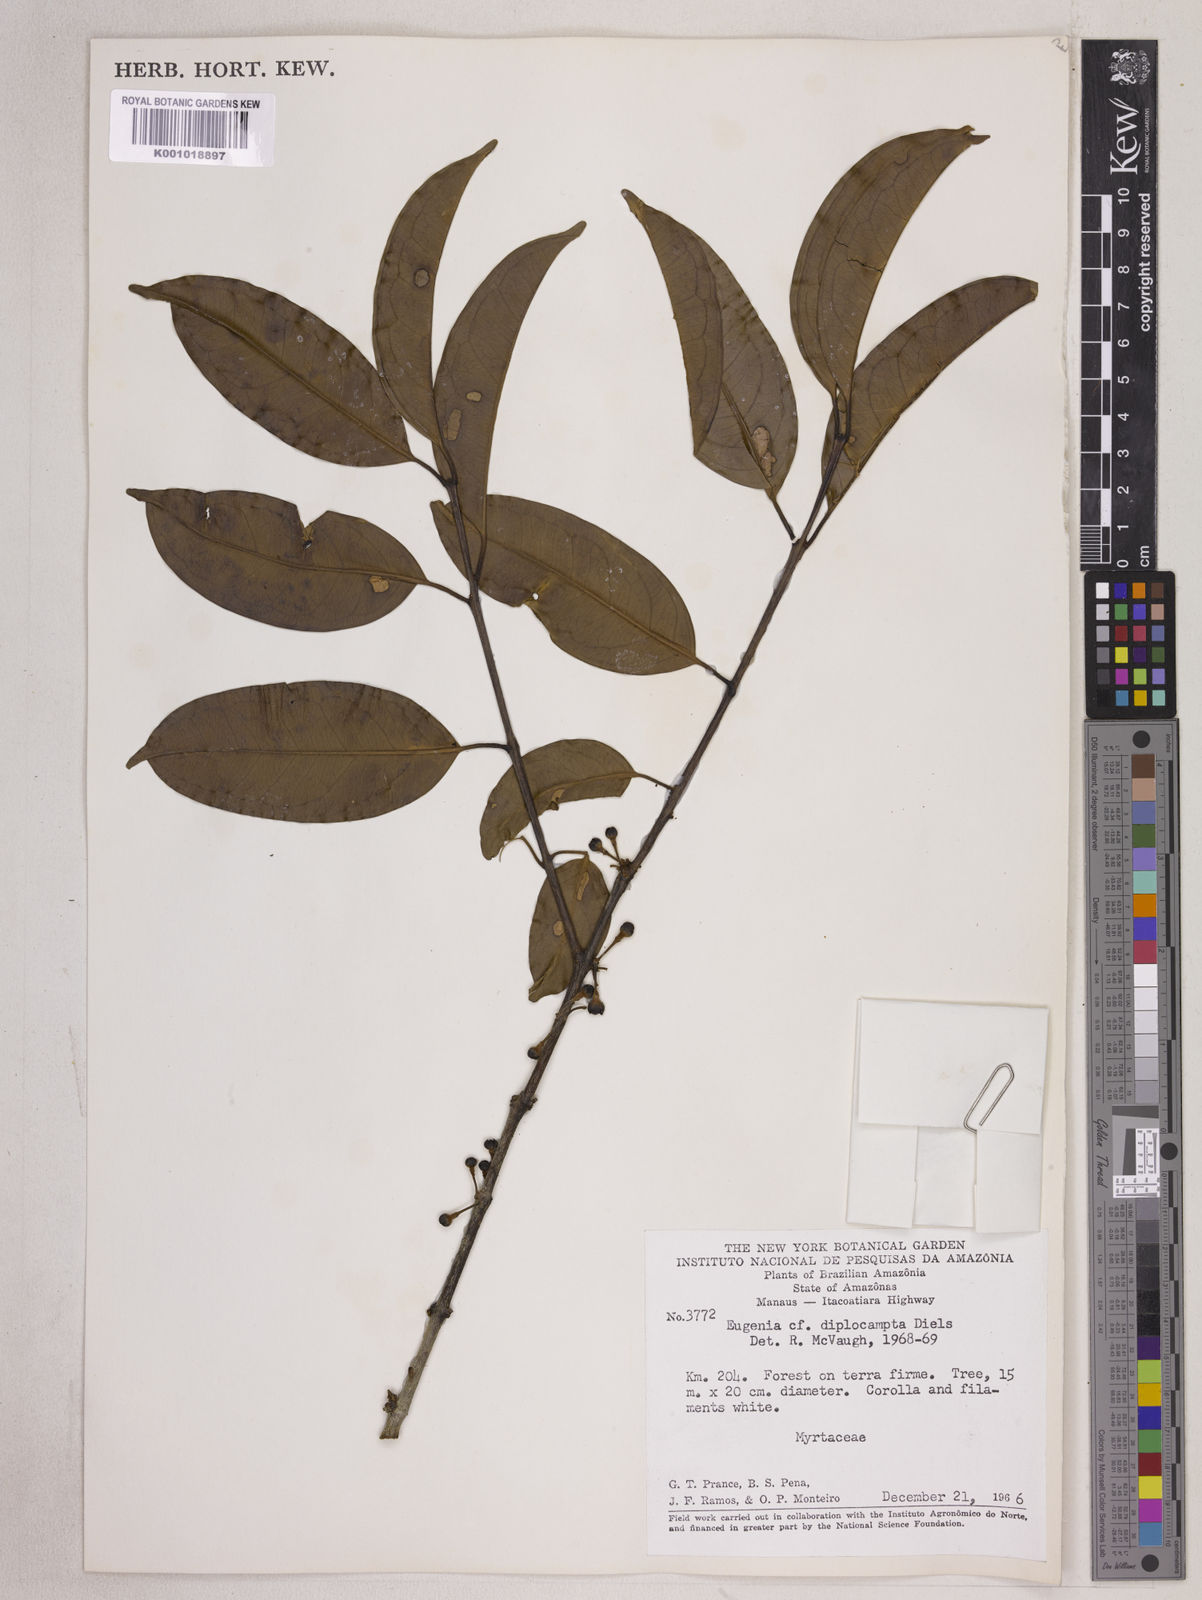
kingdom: Plantae
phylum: Tracheophyta
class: Magnoliopsida
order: Myrtales
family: Myrtaceae
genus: Eugenia
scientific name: Eugenia joseramosii
